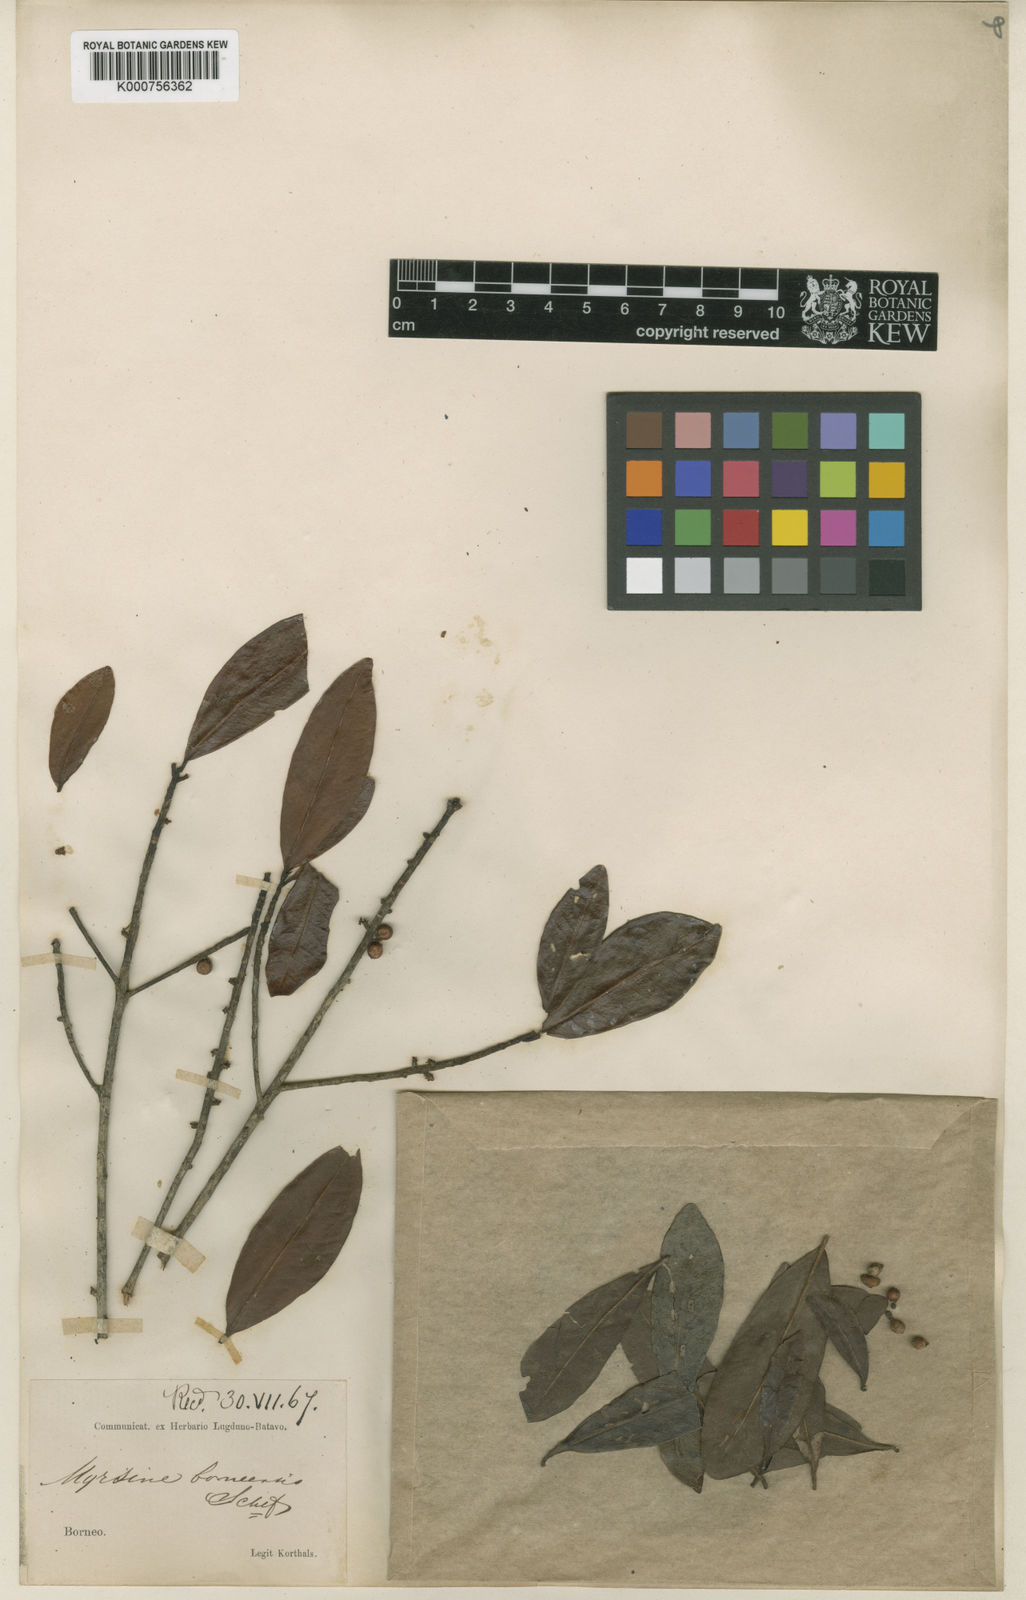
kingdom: Plantae
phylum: Tracheophyta
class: Magnoliopsida
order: Ericales
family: Primulaceae
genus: Myrsine
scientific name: Myrsine borneensis
